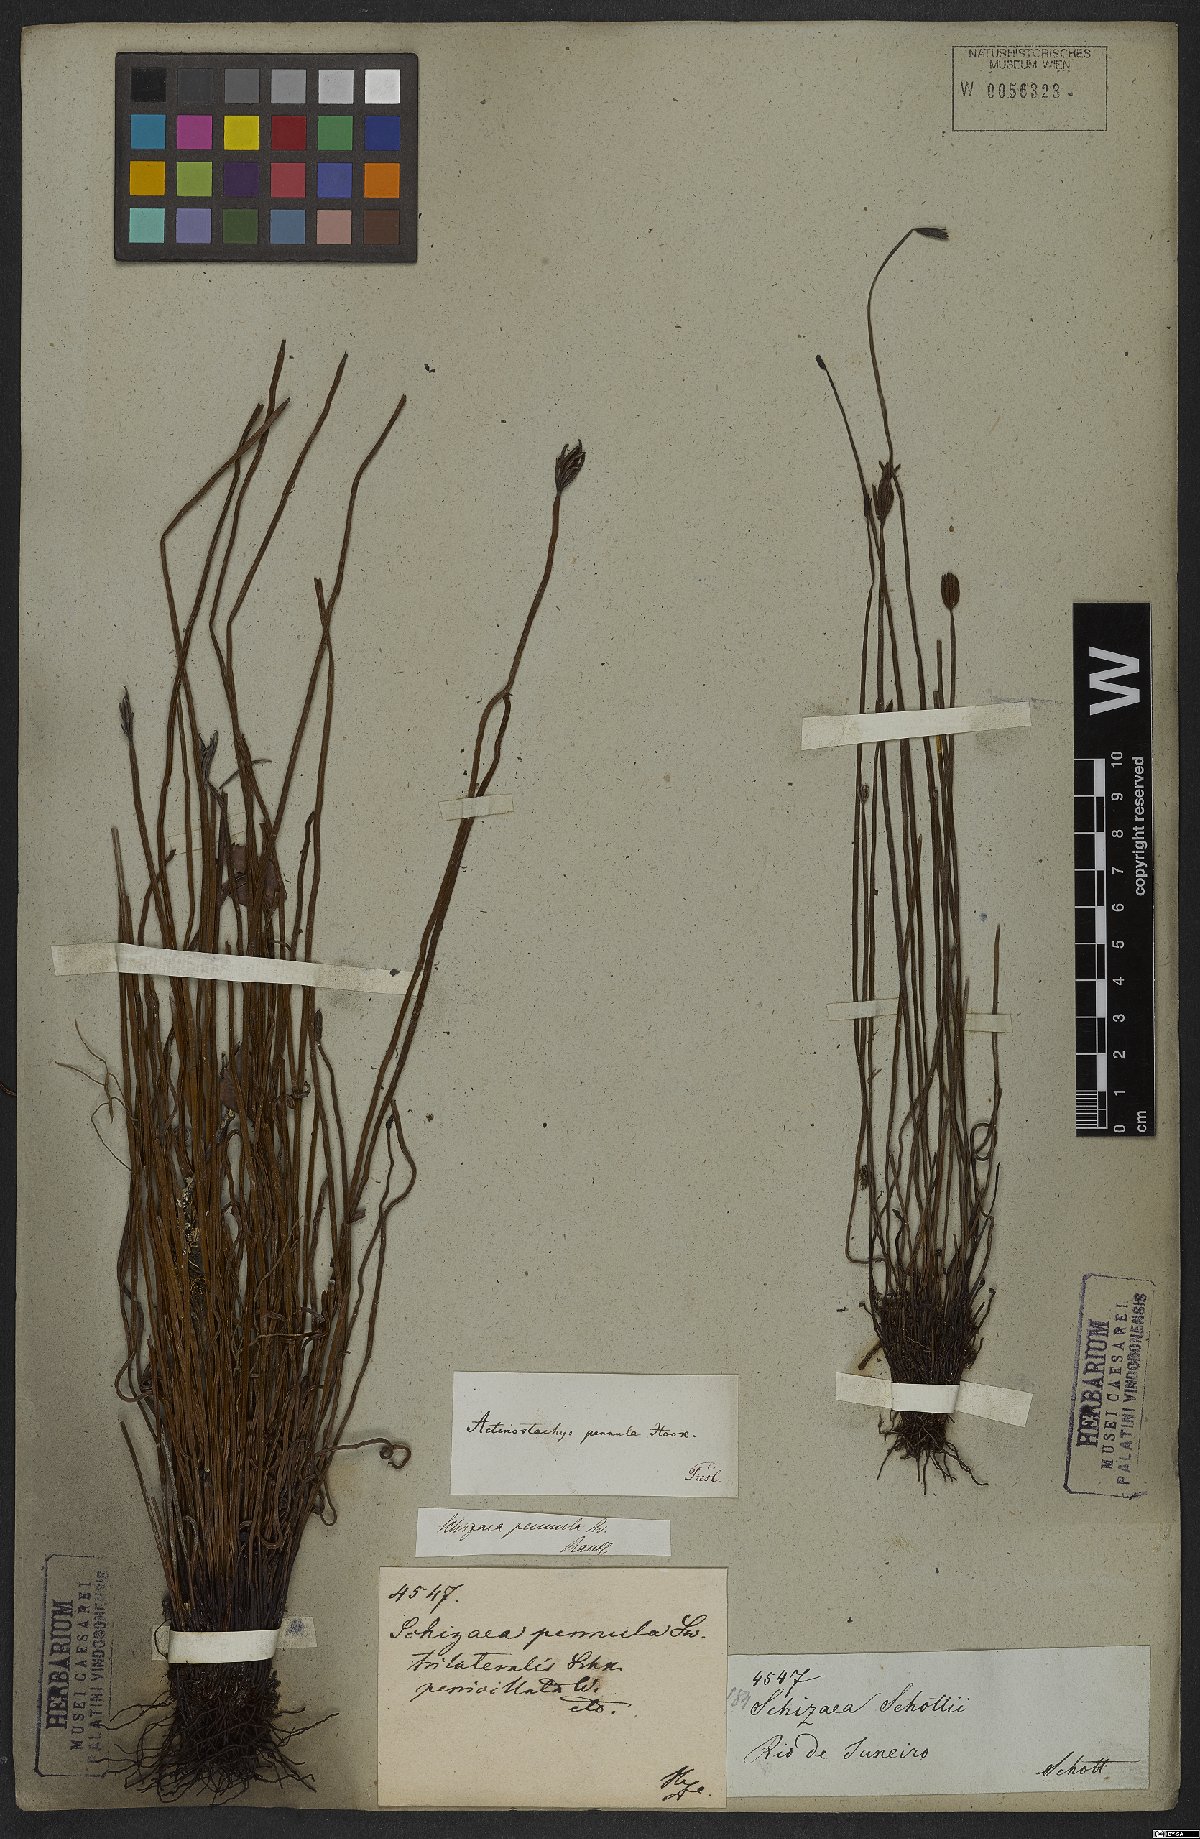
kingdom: Plantae
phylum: Tracheophyta
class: Polypodiopsida
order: Schizaeales
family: Schizaeaceae
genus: Actinostachys
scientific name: Actinostachys pennula
